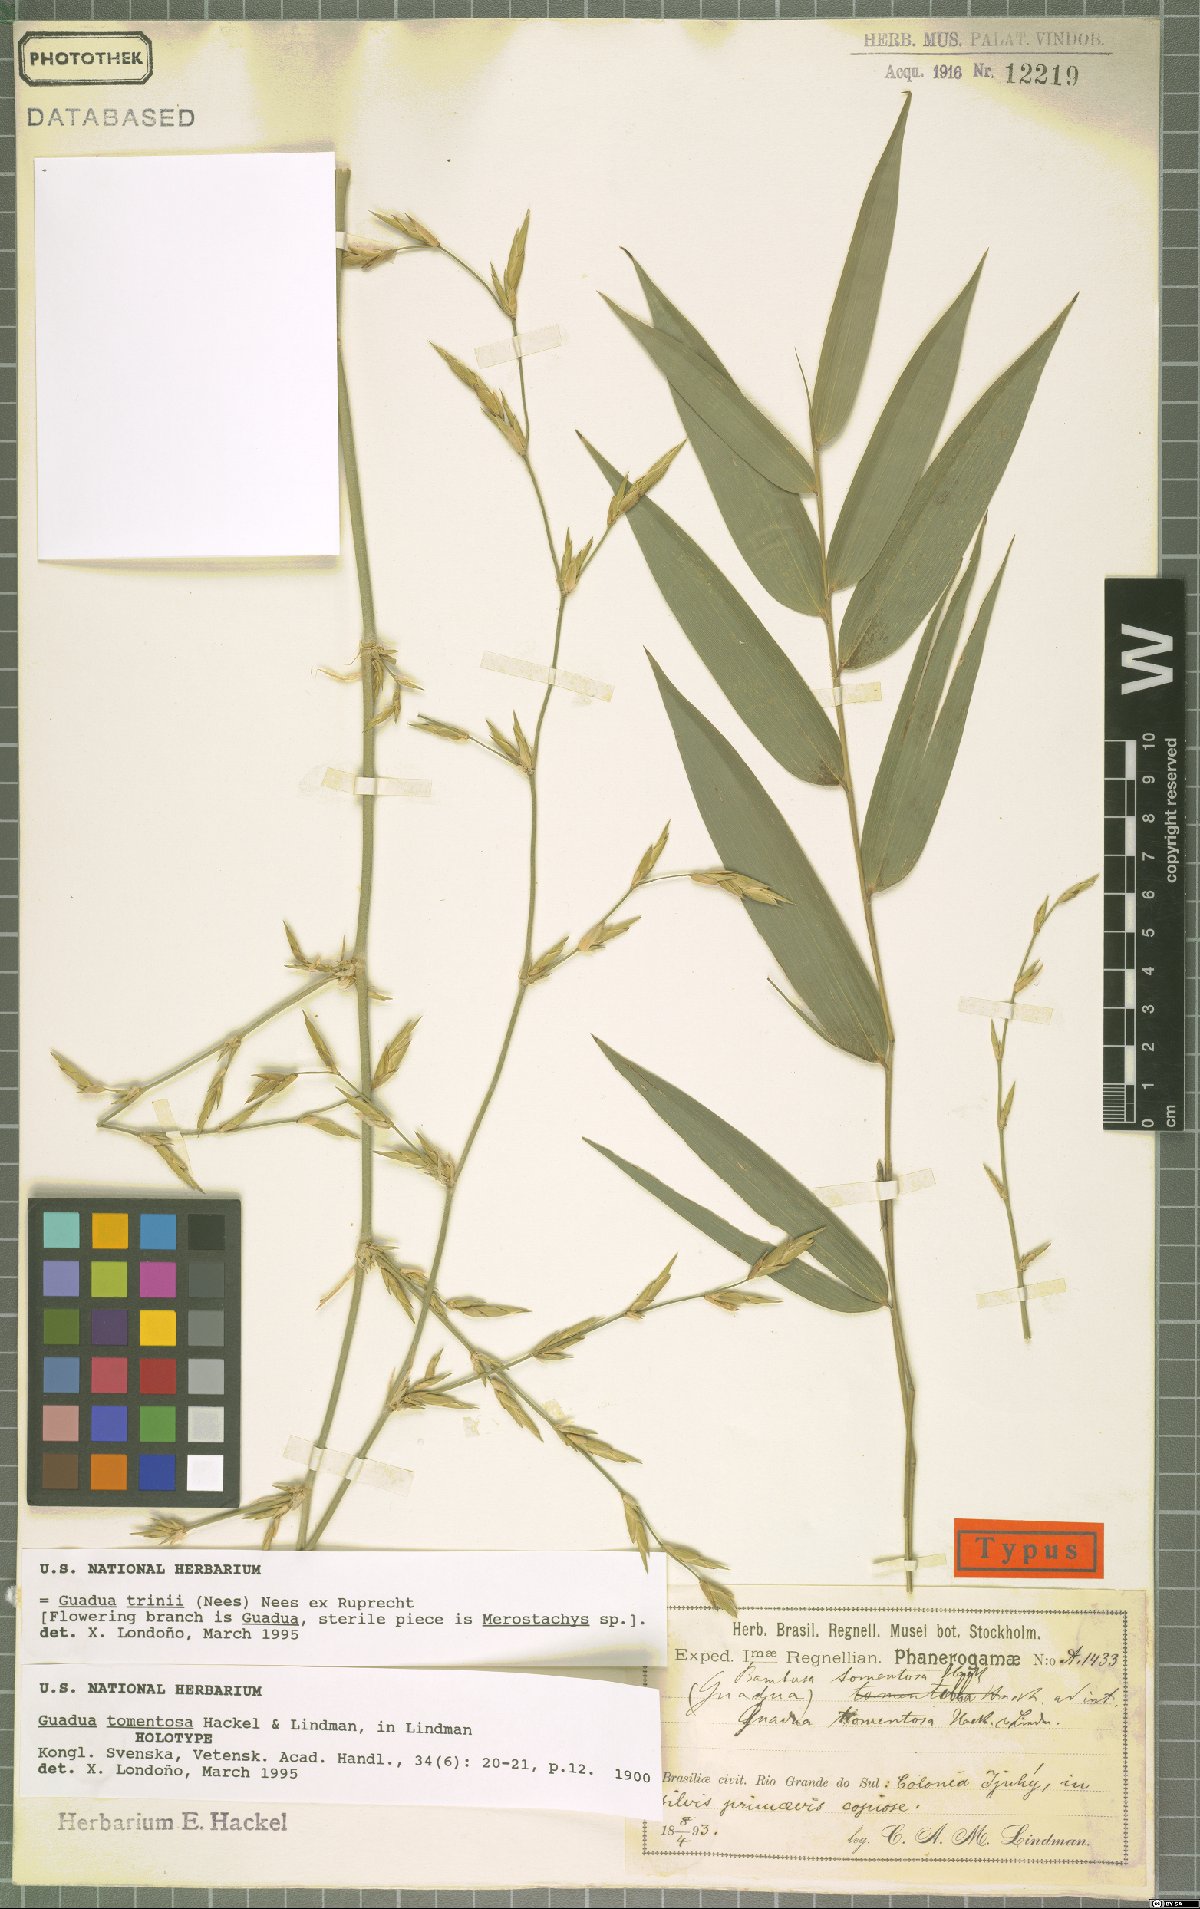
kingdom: Plantae
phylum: Tracheophyta
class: Liliopsida
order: Poales
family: Poaceae
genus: Guadua
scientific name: Guadua trinii
